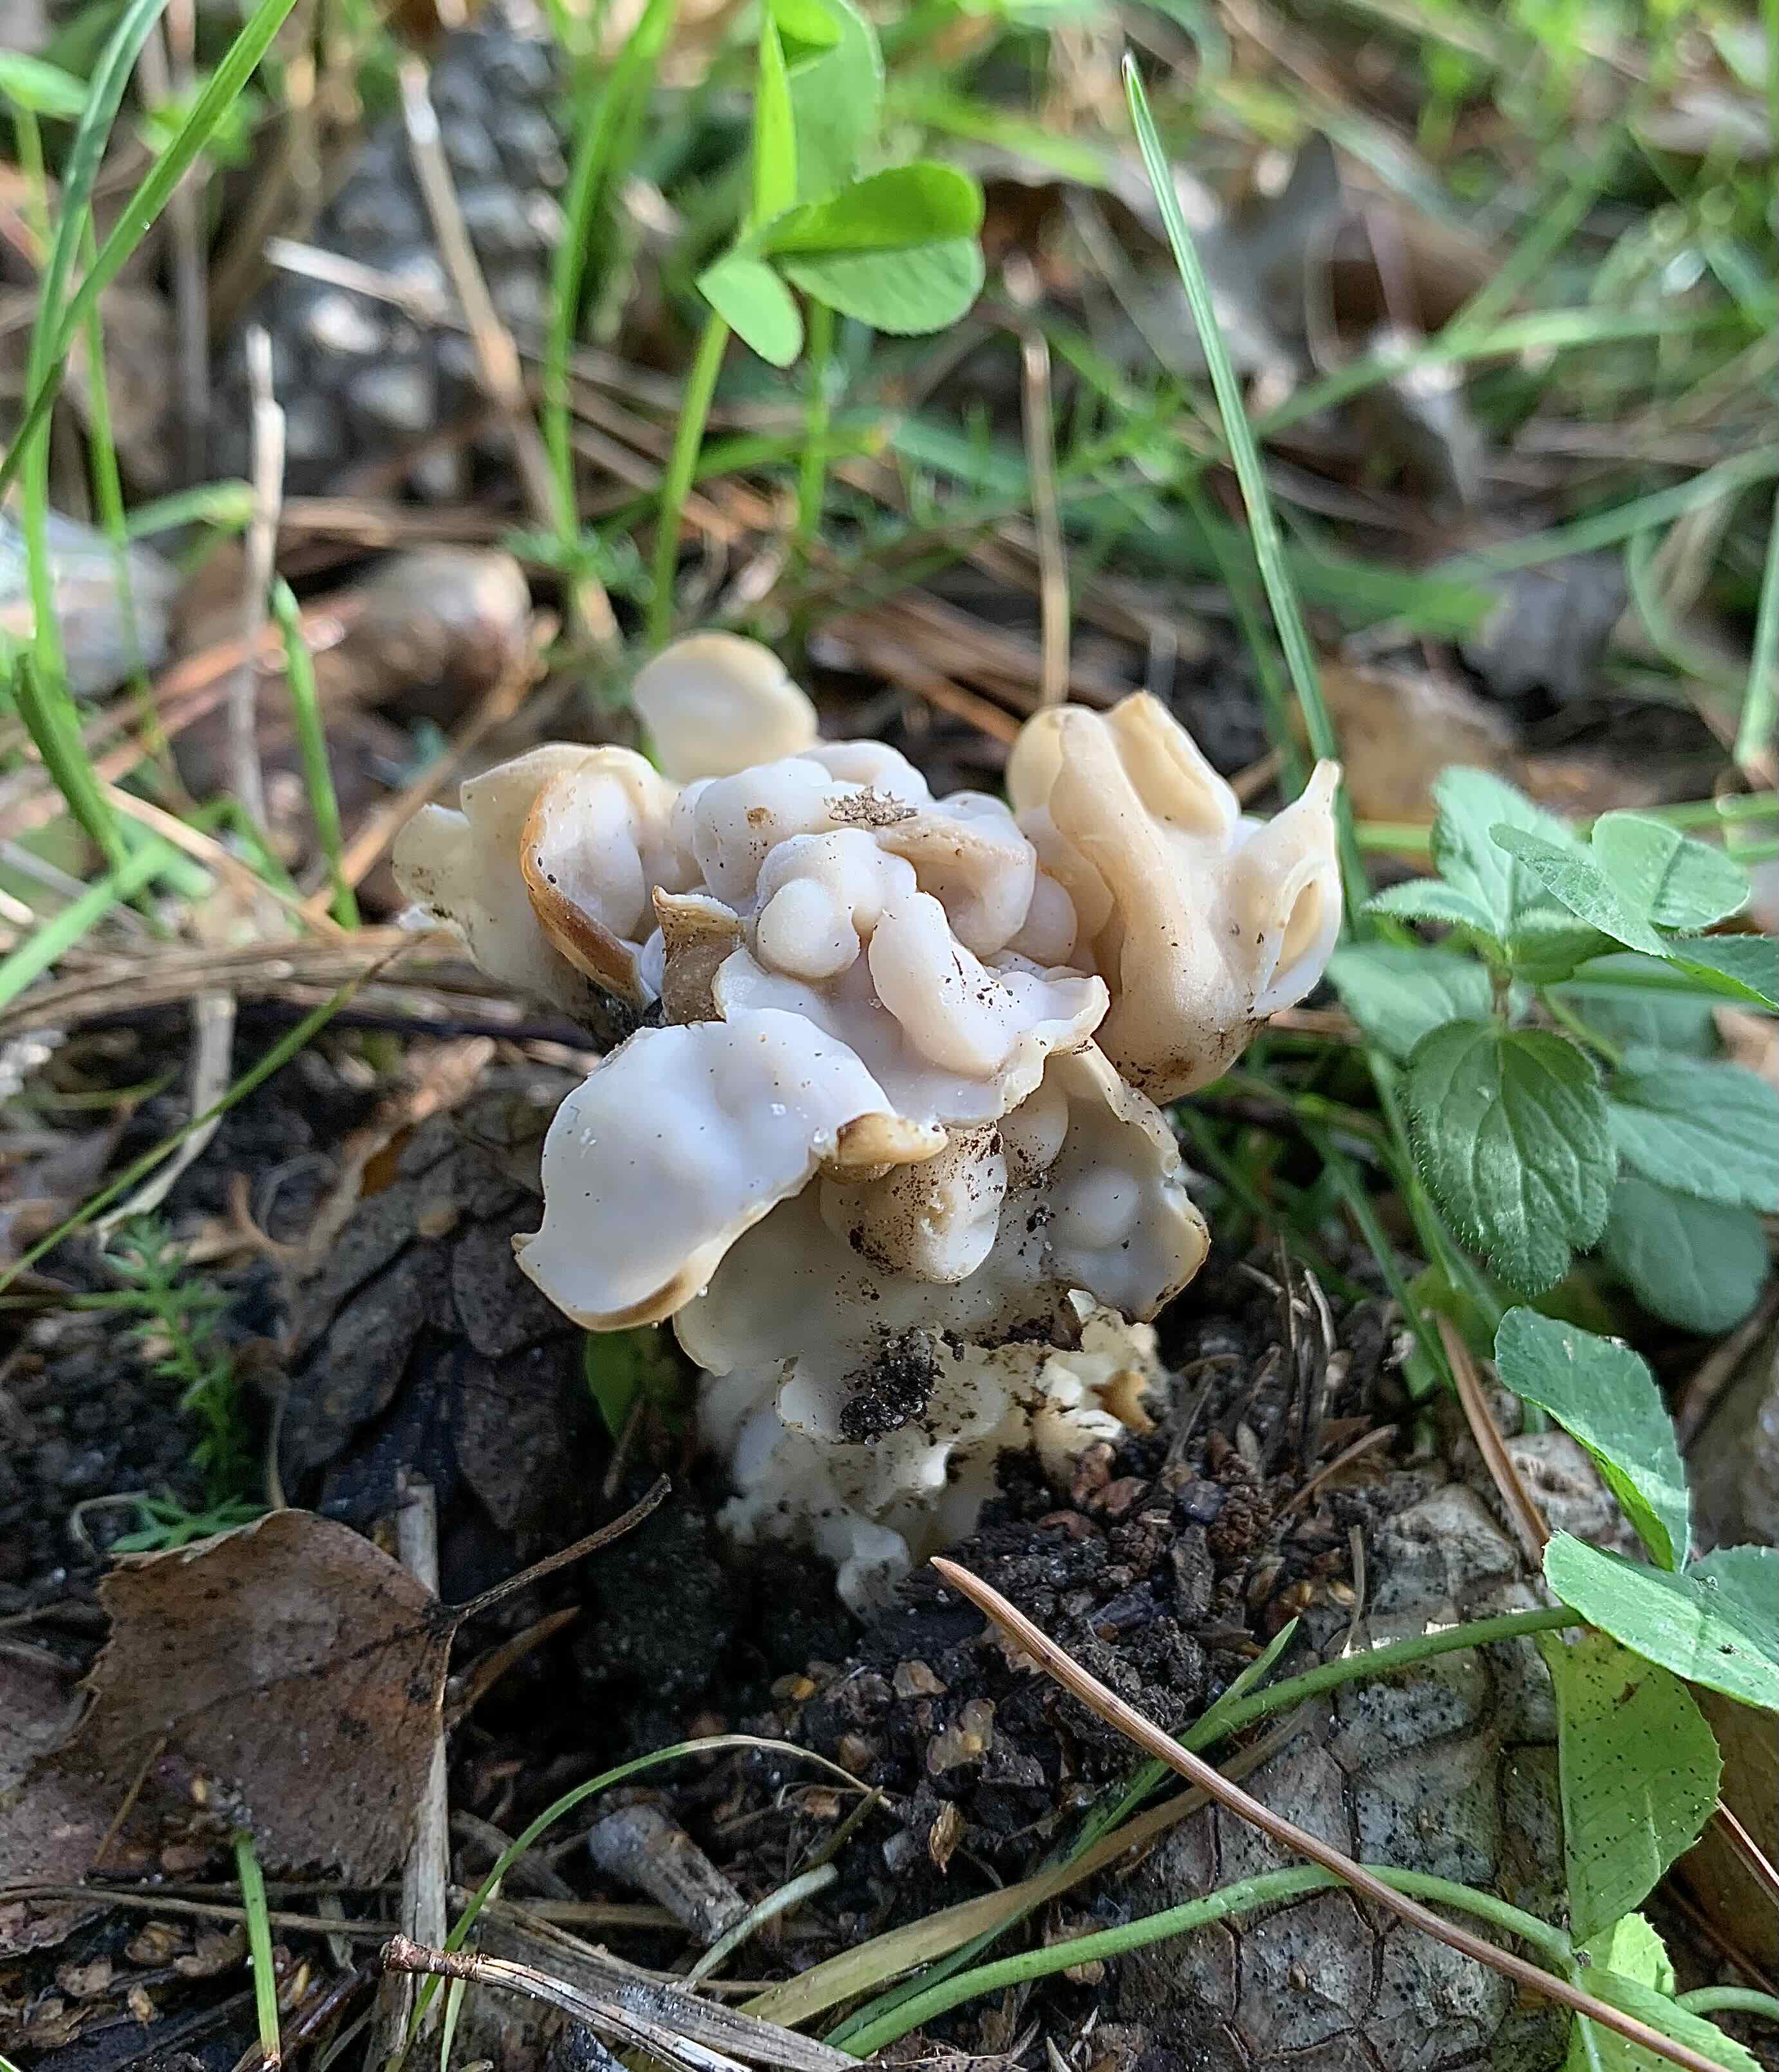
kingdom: Fungi
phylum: Ascomycota
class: Pezizomycetes
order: Pezizales
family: Helvellaceae
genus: Helvella
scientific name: Helvella crispa
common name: kruset foldhat
